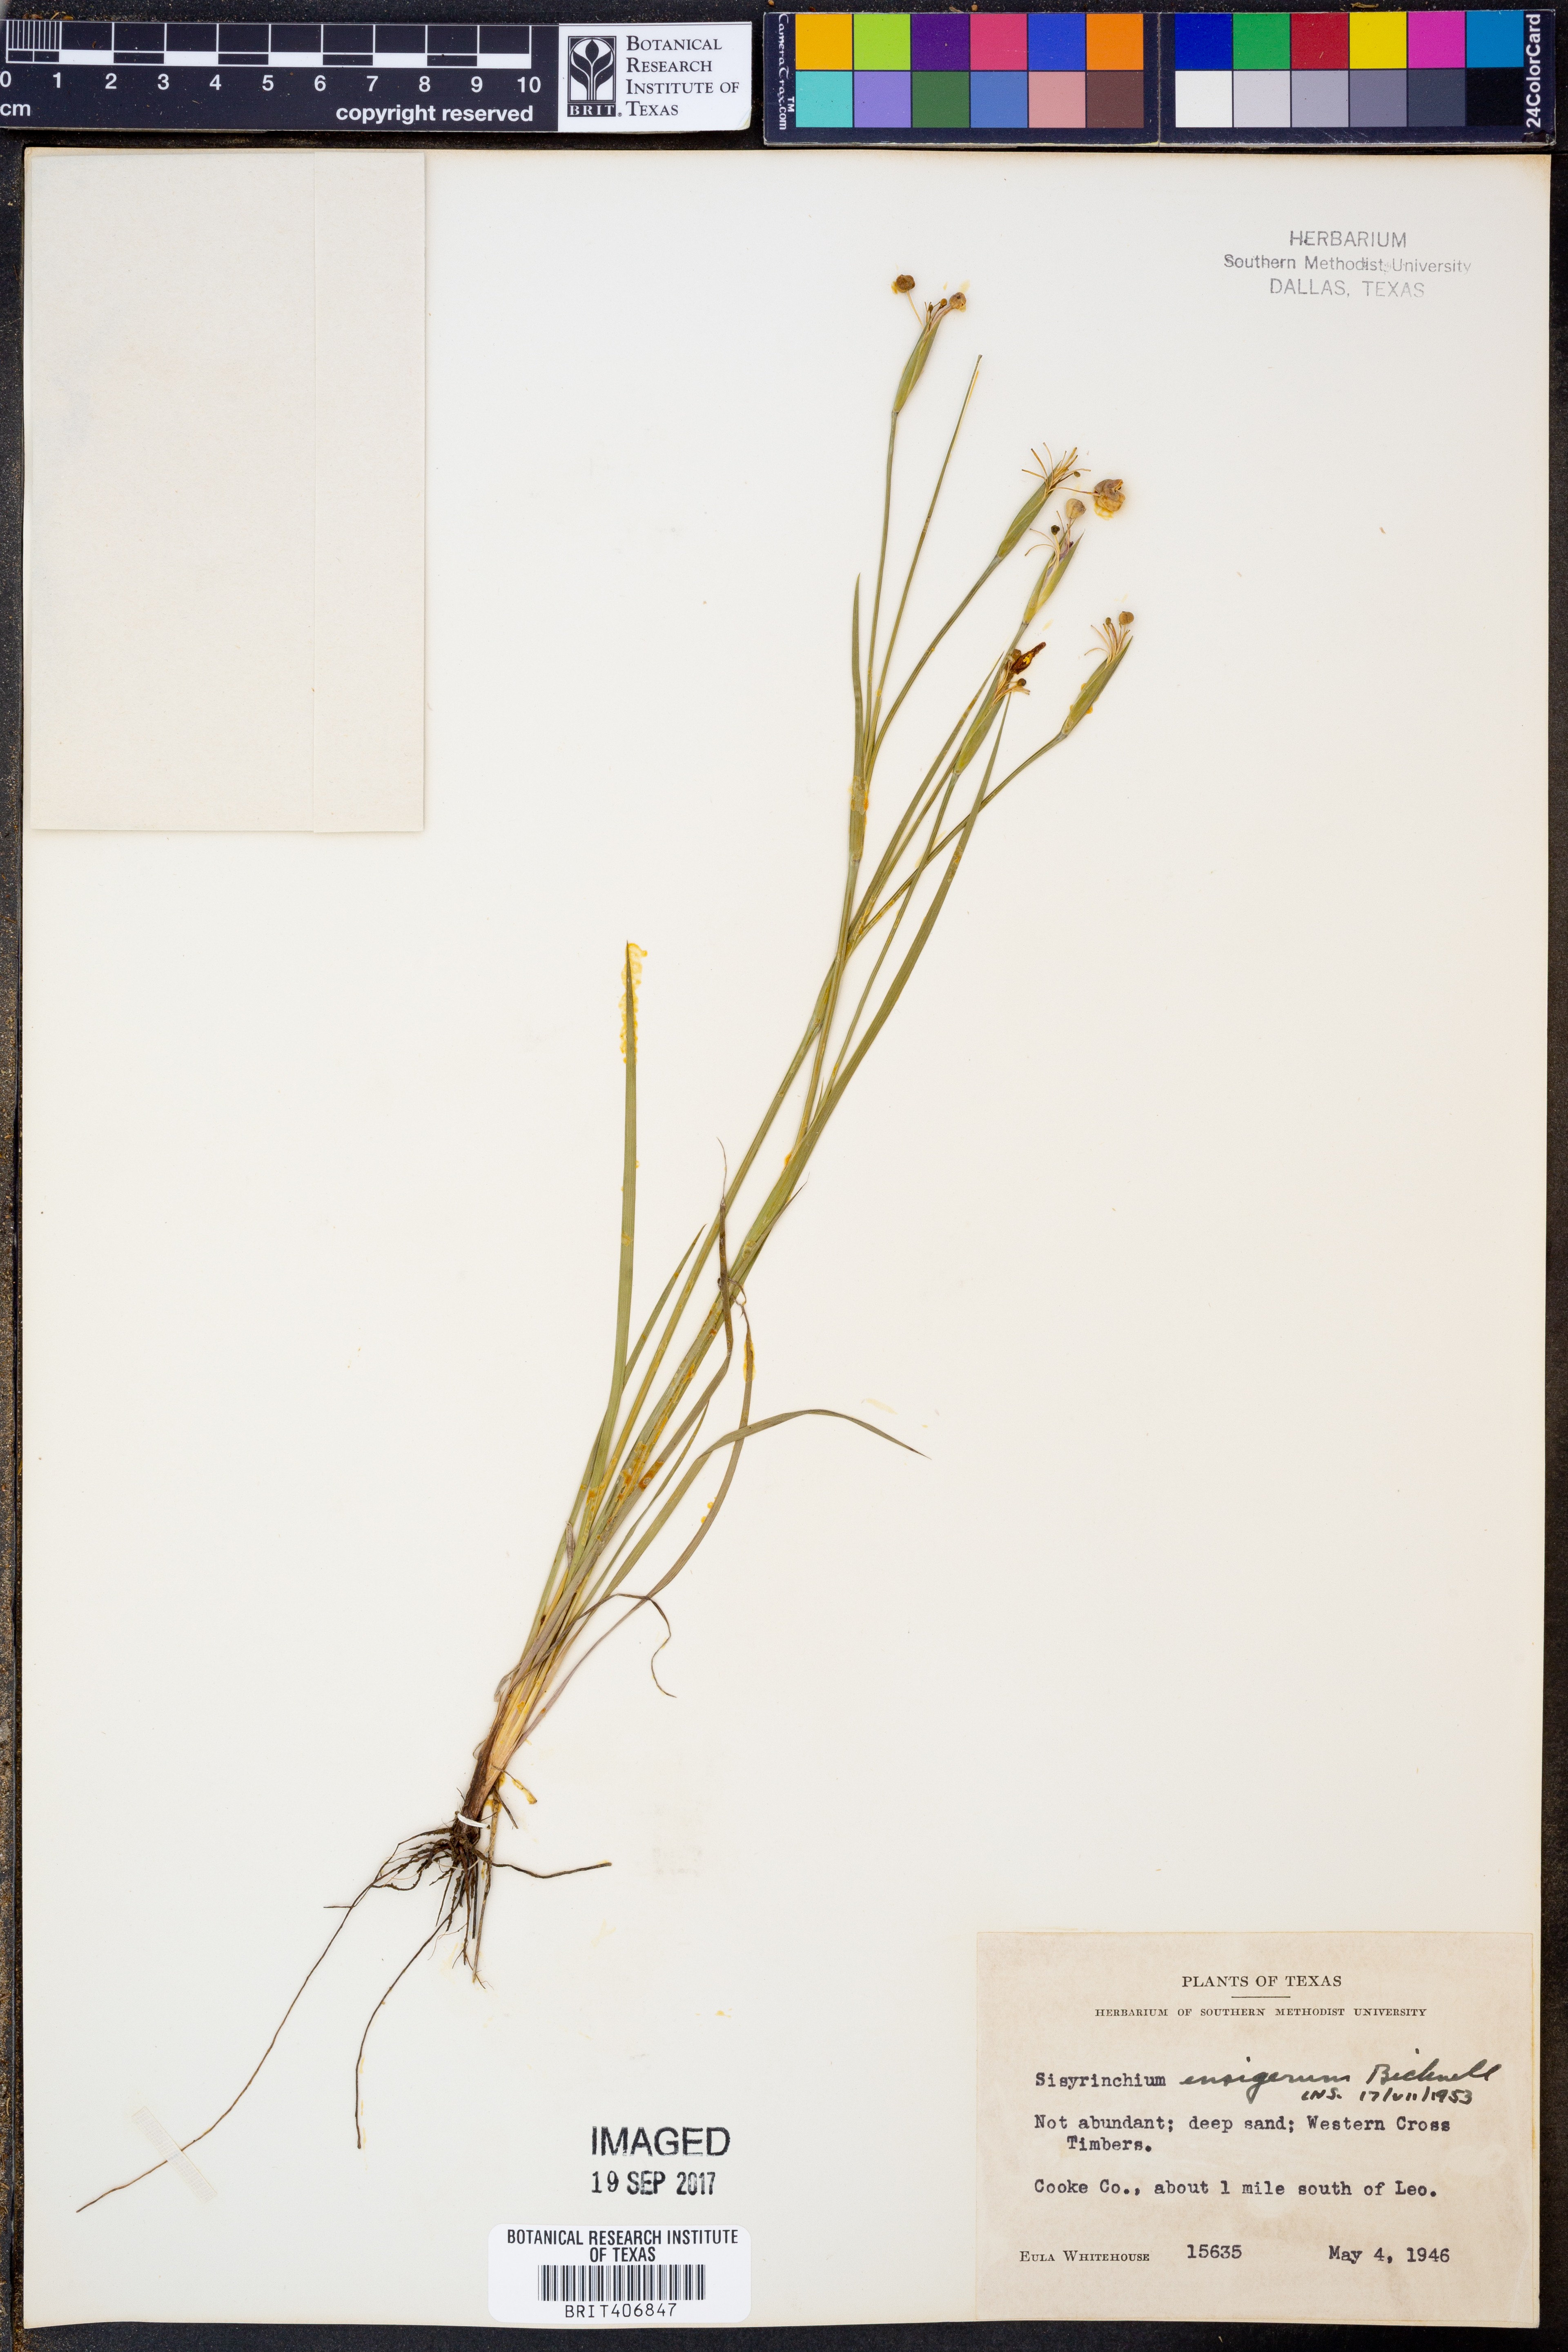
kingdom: Plantae
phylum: Tracheophyta
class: Liliopsida
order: Asparagales
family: Iridaceae
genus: Sisyrinchium
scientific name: Sisyrinchium ensigerum
